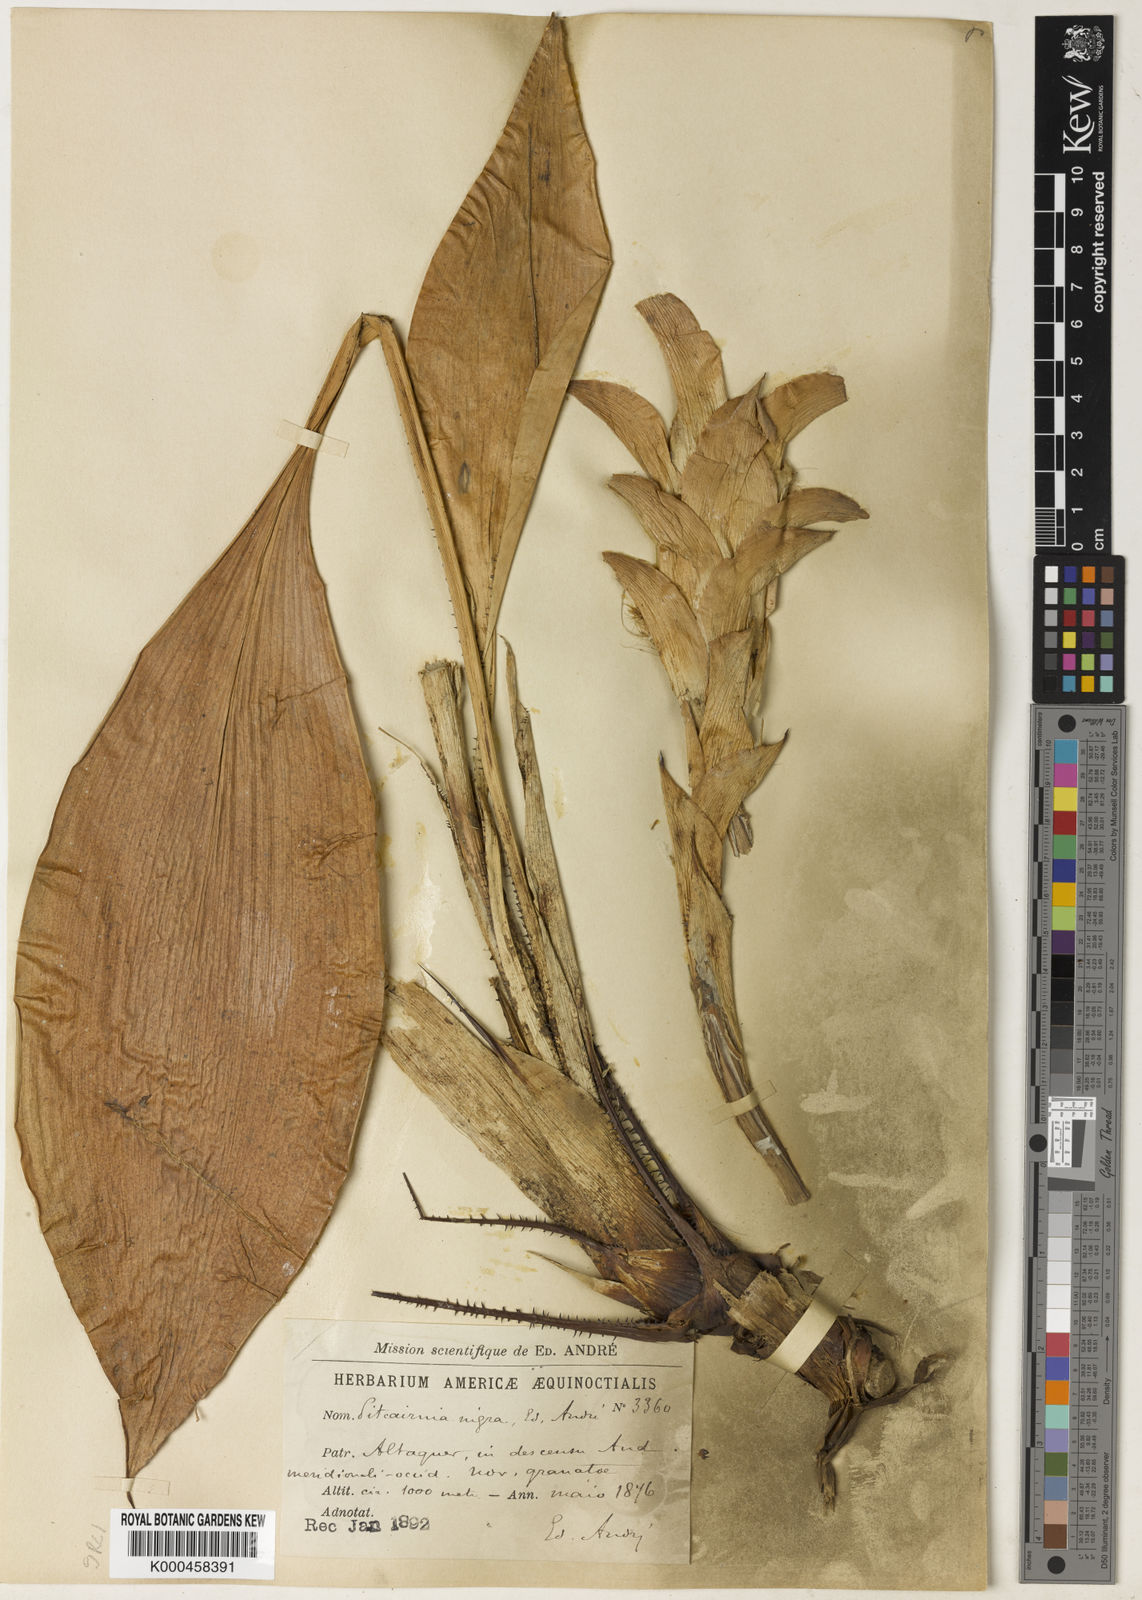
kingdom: Plantae
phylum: Tracheophyta
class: Liliopsida
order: Poales
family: Bromeliaceae
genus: Pitcairnia
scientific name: Pitcairnia
